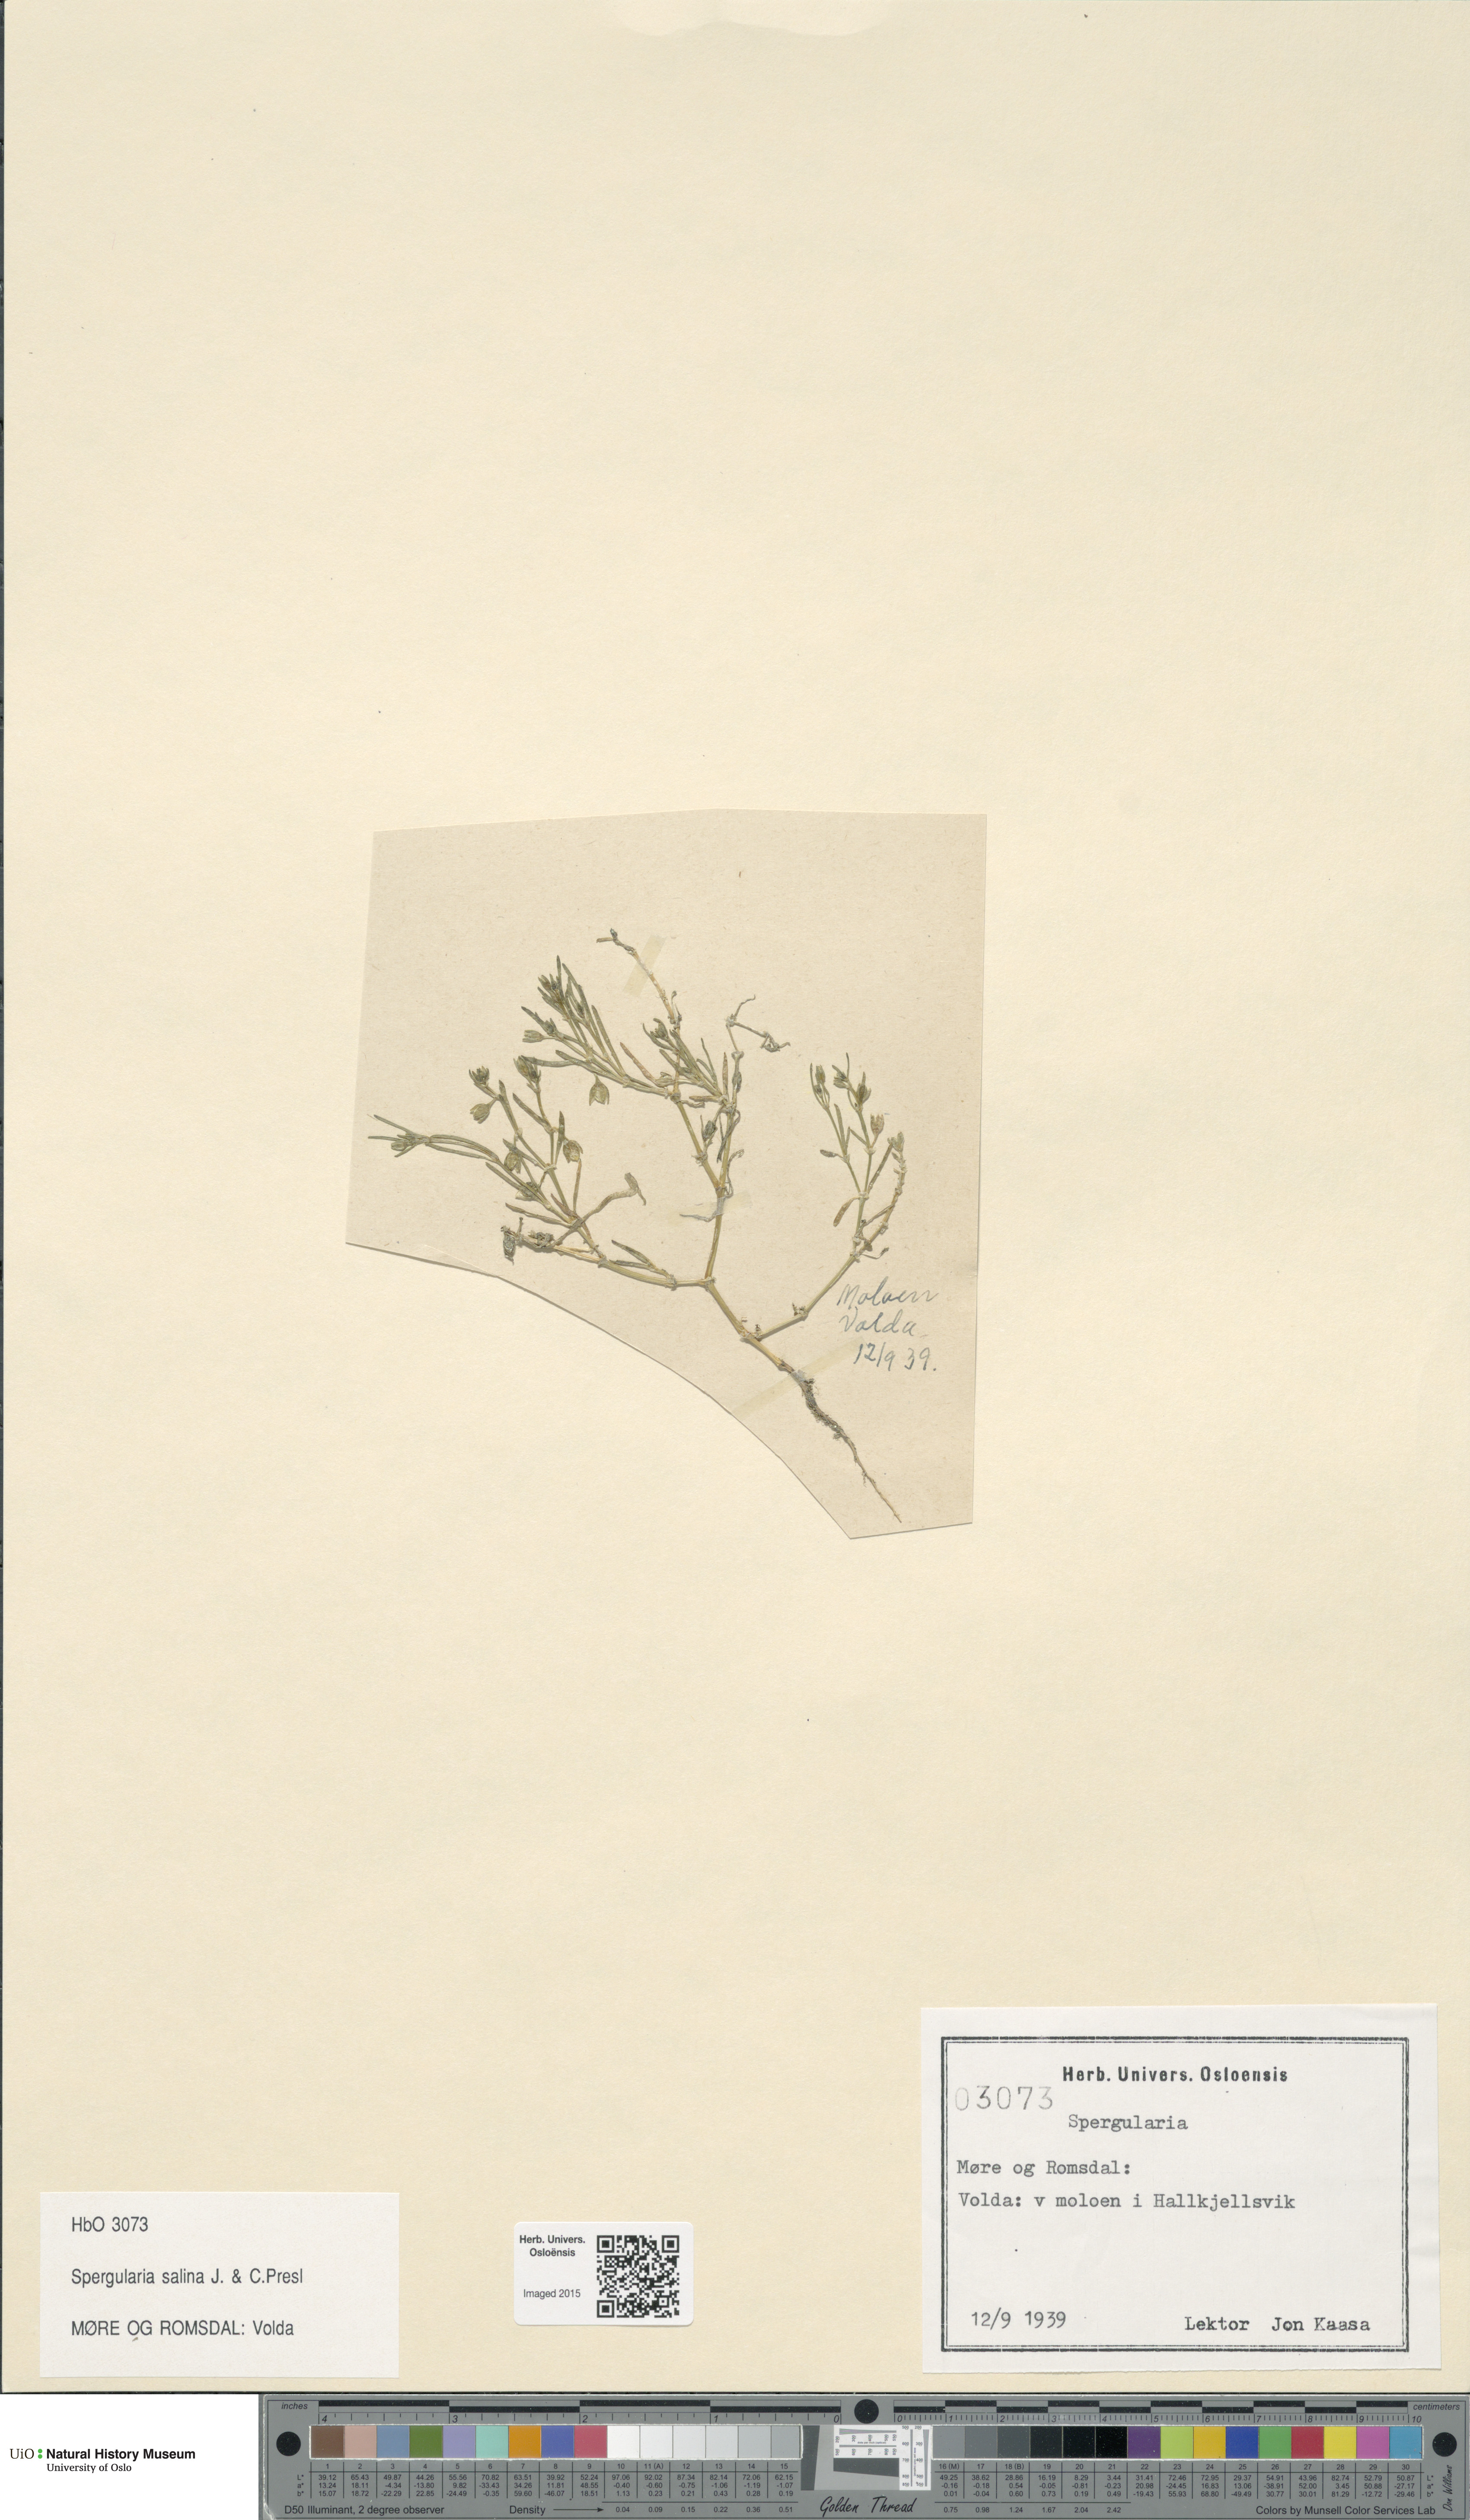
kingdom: Plantae
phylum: Tracheophyta
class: Magnoliopsida
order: Caryophyllales
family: Caryophyllaceae
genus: Spergularia
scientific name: Spergularia marina
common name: Lesser sea-spurrey
